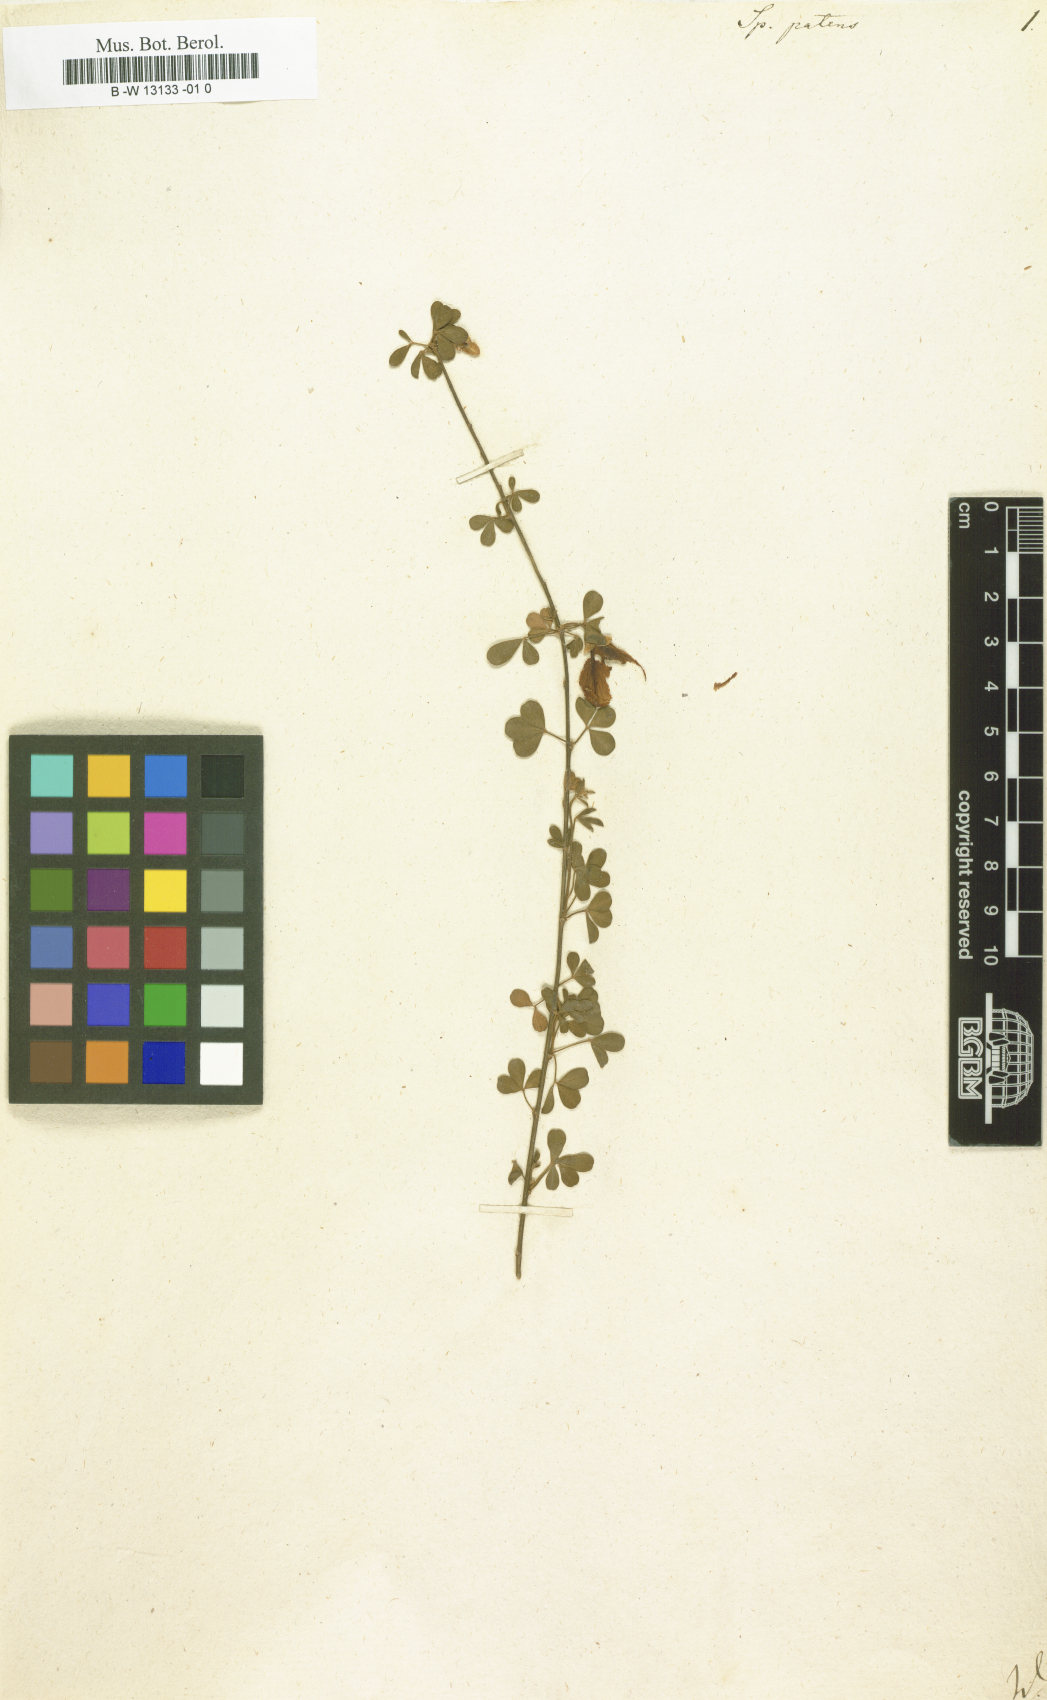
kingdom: Plantae
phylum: Tracheophyta
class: Magnoliopsida
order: Fabales
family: Fabaceae
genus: Cytisus
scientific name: Cytisus striatus
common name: Hairy-fruited broom
